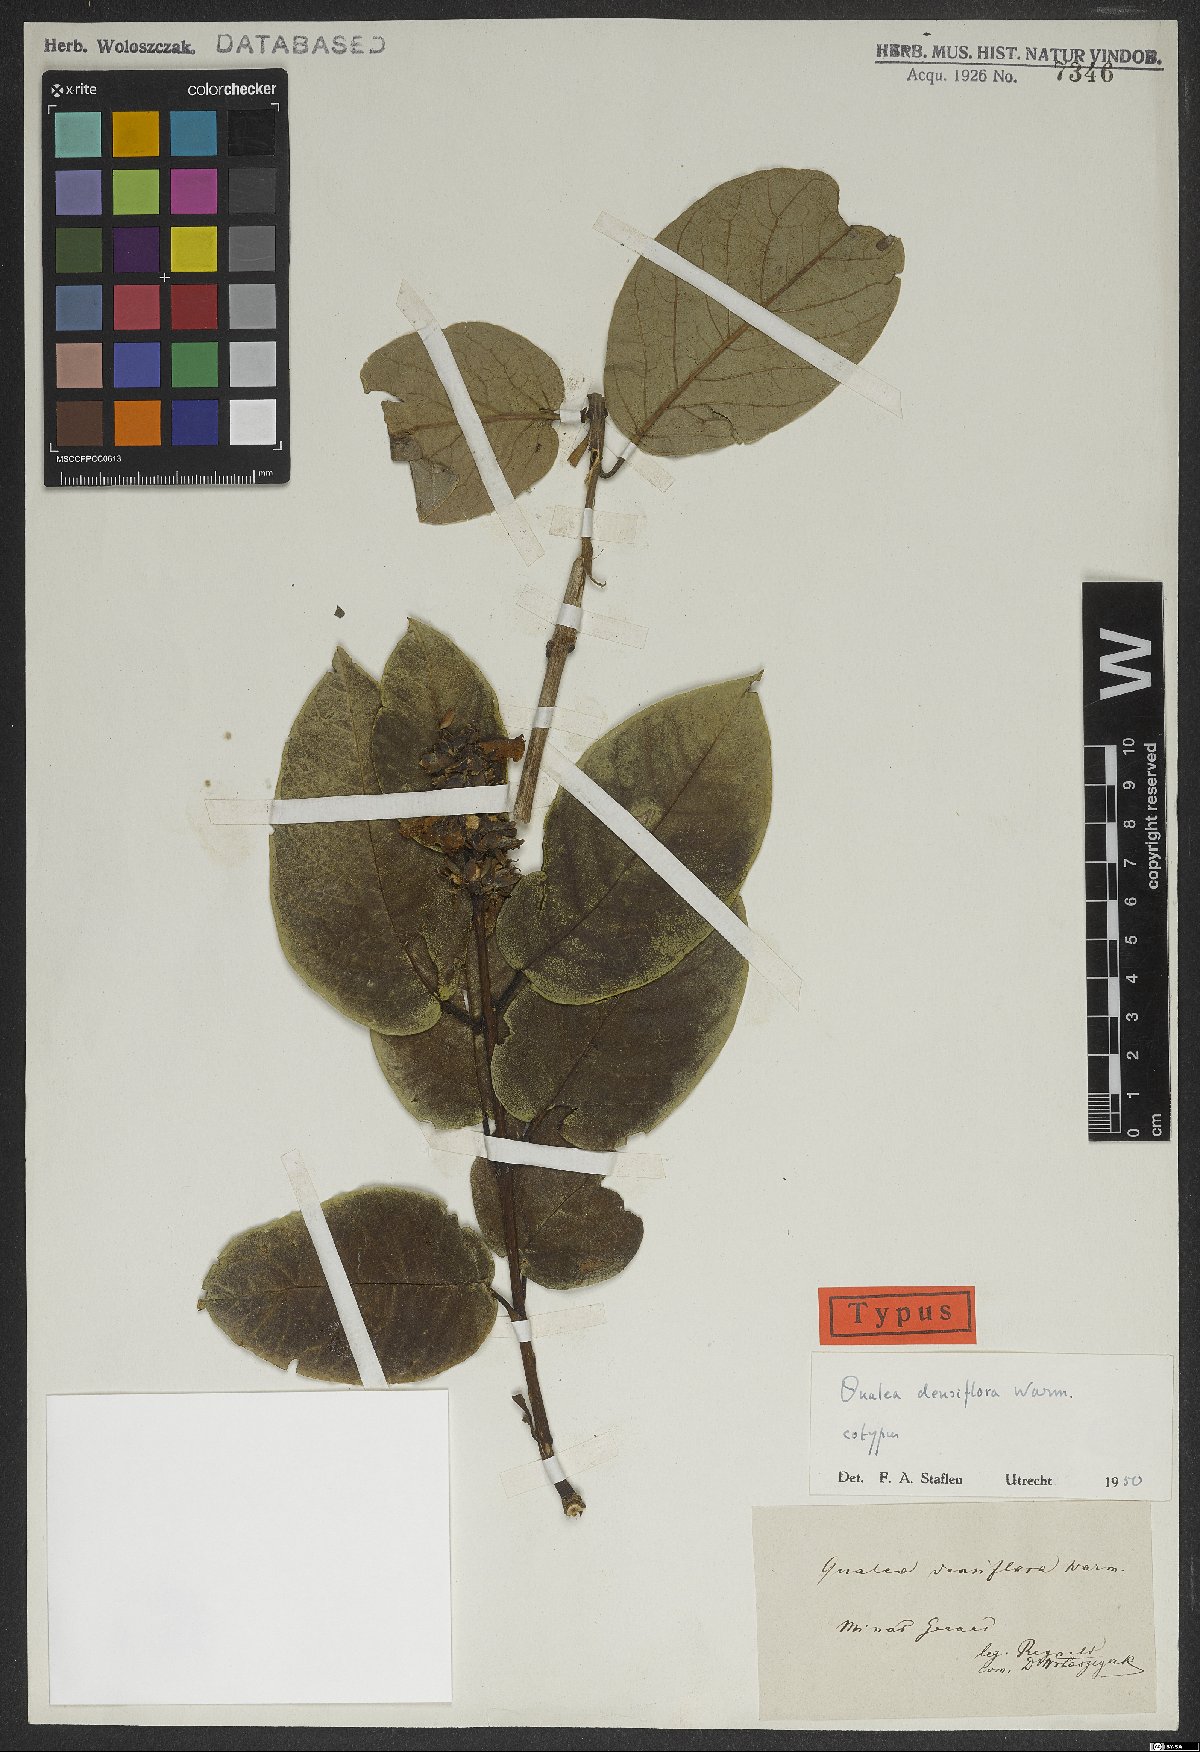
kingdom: Plantae
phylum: Tracheophyta
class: Magnoliopsida
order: Myrtales
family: Vochysiaceae
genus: Qualea
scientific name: Qualea densiflora
